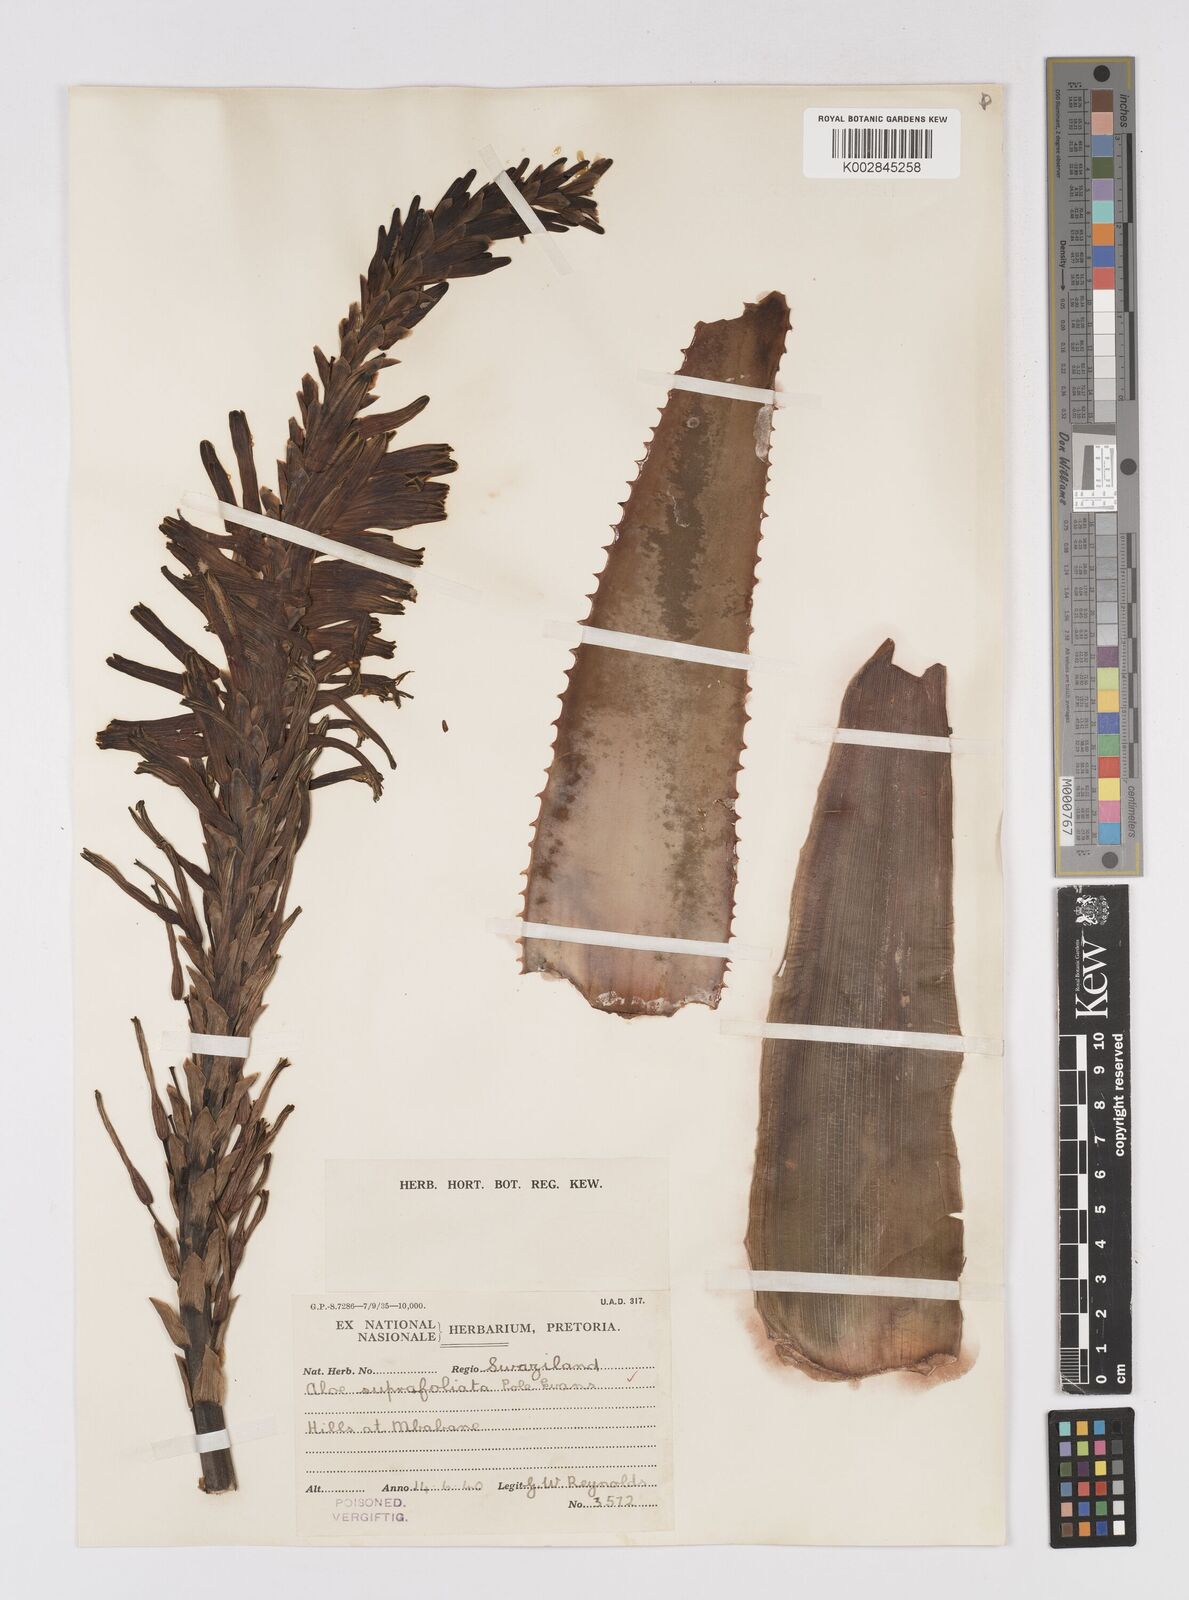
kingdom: Plantae
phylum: Tracheophyta
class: Liliopsida
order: Asparagales
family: Asphodelaceae
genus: Aloe
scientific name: Aloe suprafoliata
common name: Book aloe
